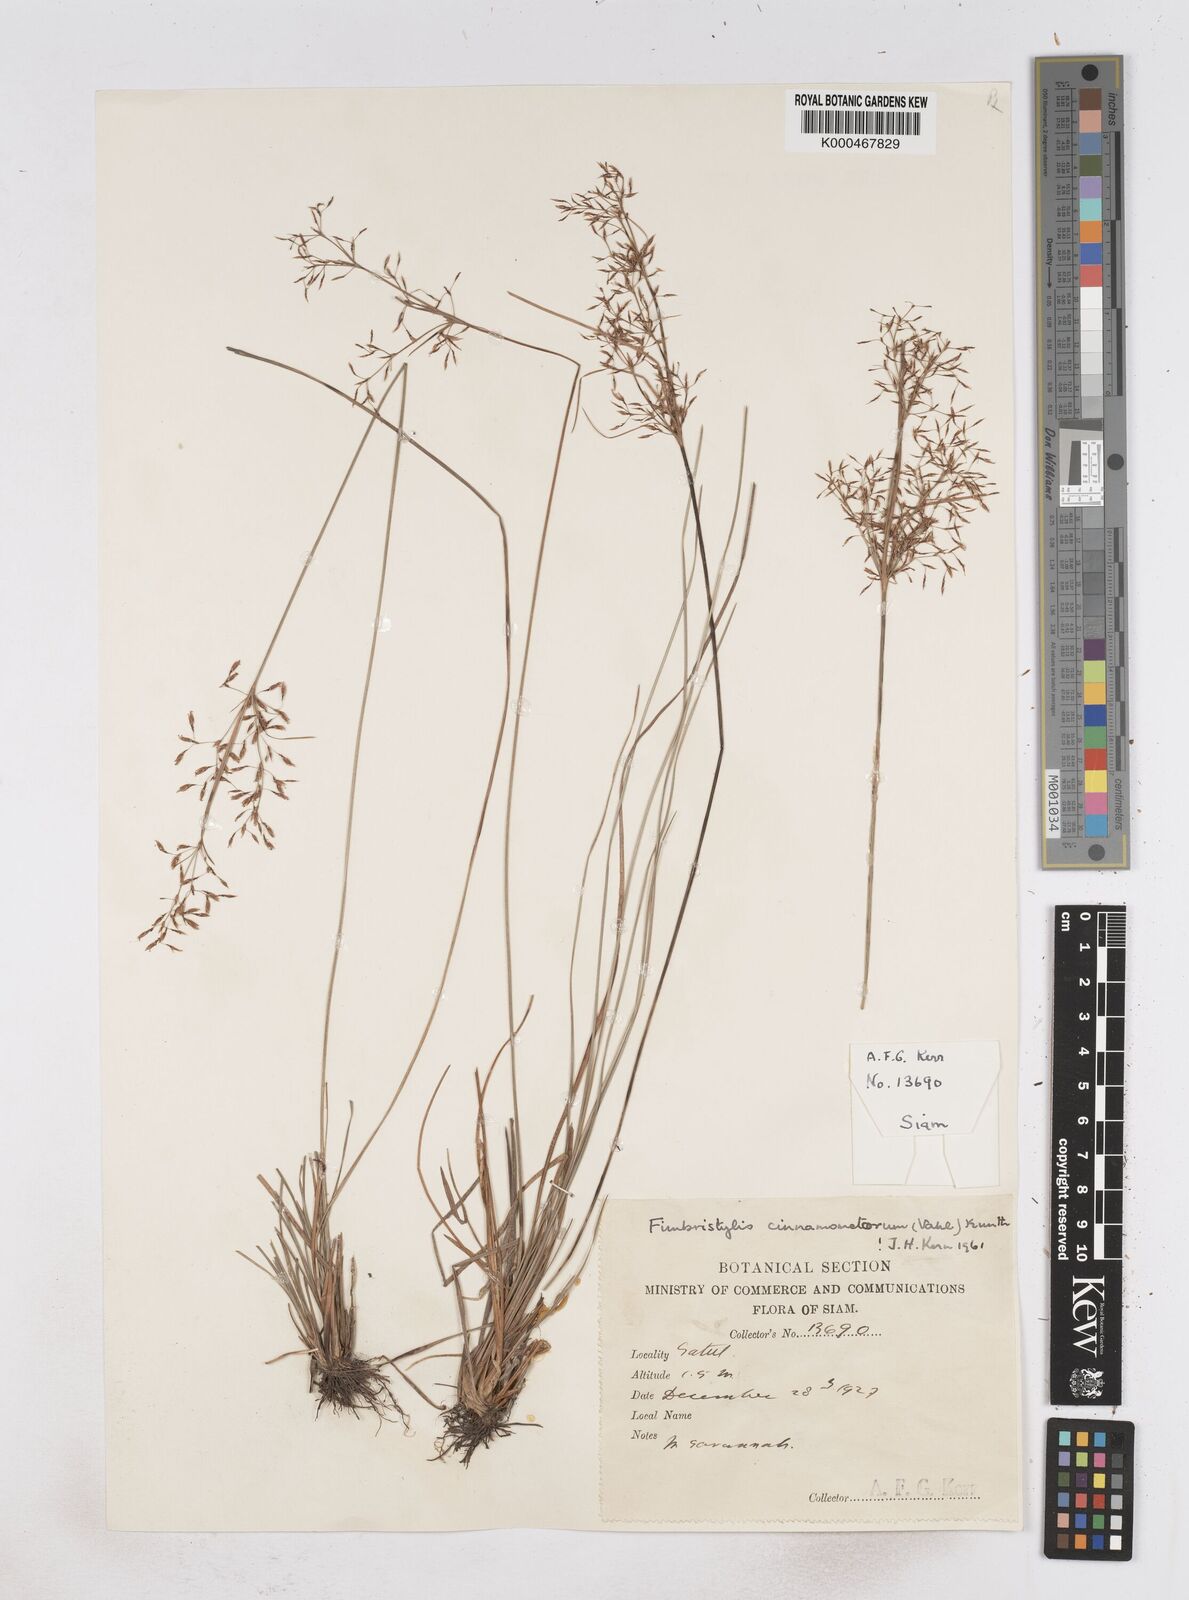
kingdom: Plantae
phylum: Tracheophyta
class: Liliopsida
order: Poales
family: Cyperaceae
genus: Fimbristylis
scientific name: Fimbristylis cinnamometorum
